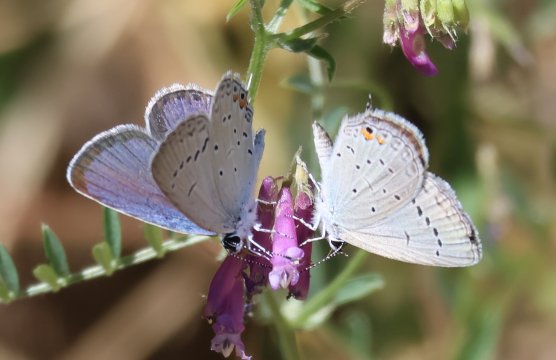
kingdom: Animalia
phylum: Arthropoda
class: Insecta
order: Lepidoptera
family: Lycaenidae
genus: Elkalyce
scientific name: Elkalyce comyntas
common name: Eastern Tailed-Blue
